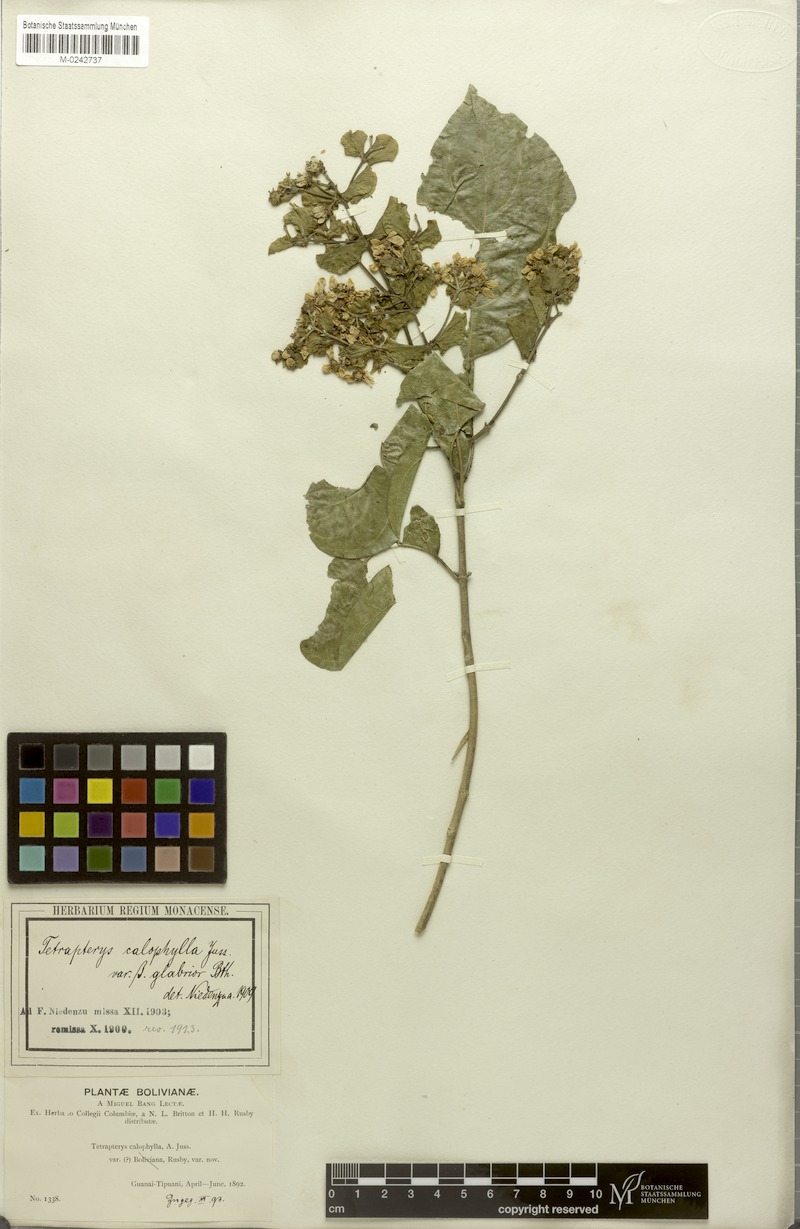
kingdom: Plantae
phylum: Tracheophyta
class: Magnoliopsida
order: Malpighiales
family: Malpighiaceae
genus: Tetrapterys
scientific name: Tetrapterys calophylla
